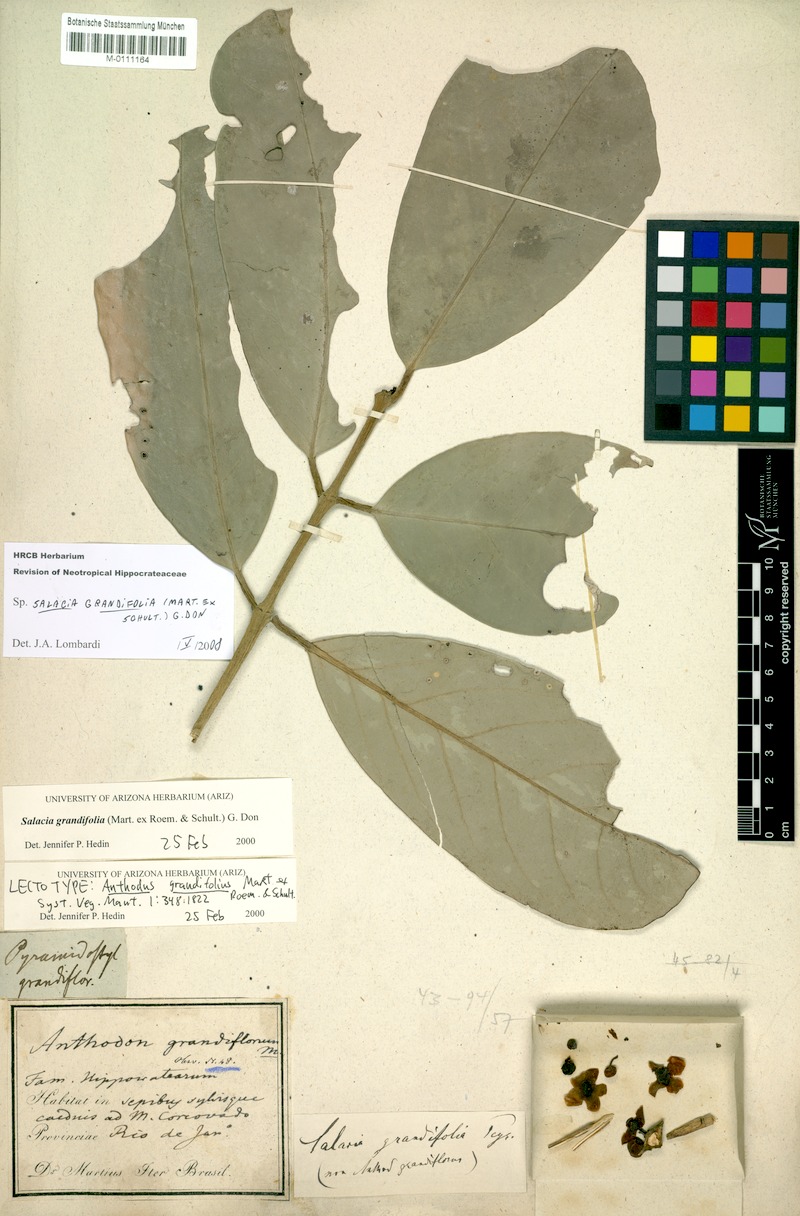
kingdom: Plantae
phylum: Tracheophyta
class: Magnoliopsida
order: Celastrales
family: Celastraceae
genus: Salacia
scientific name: Salacia grandifolia
